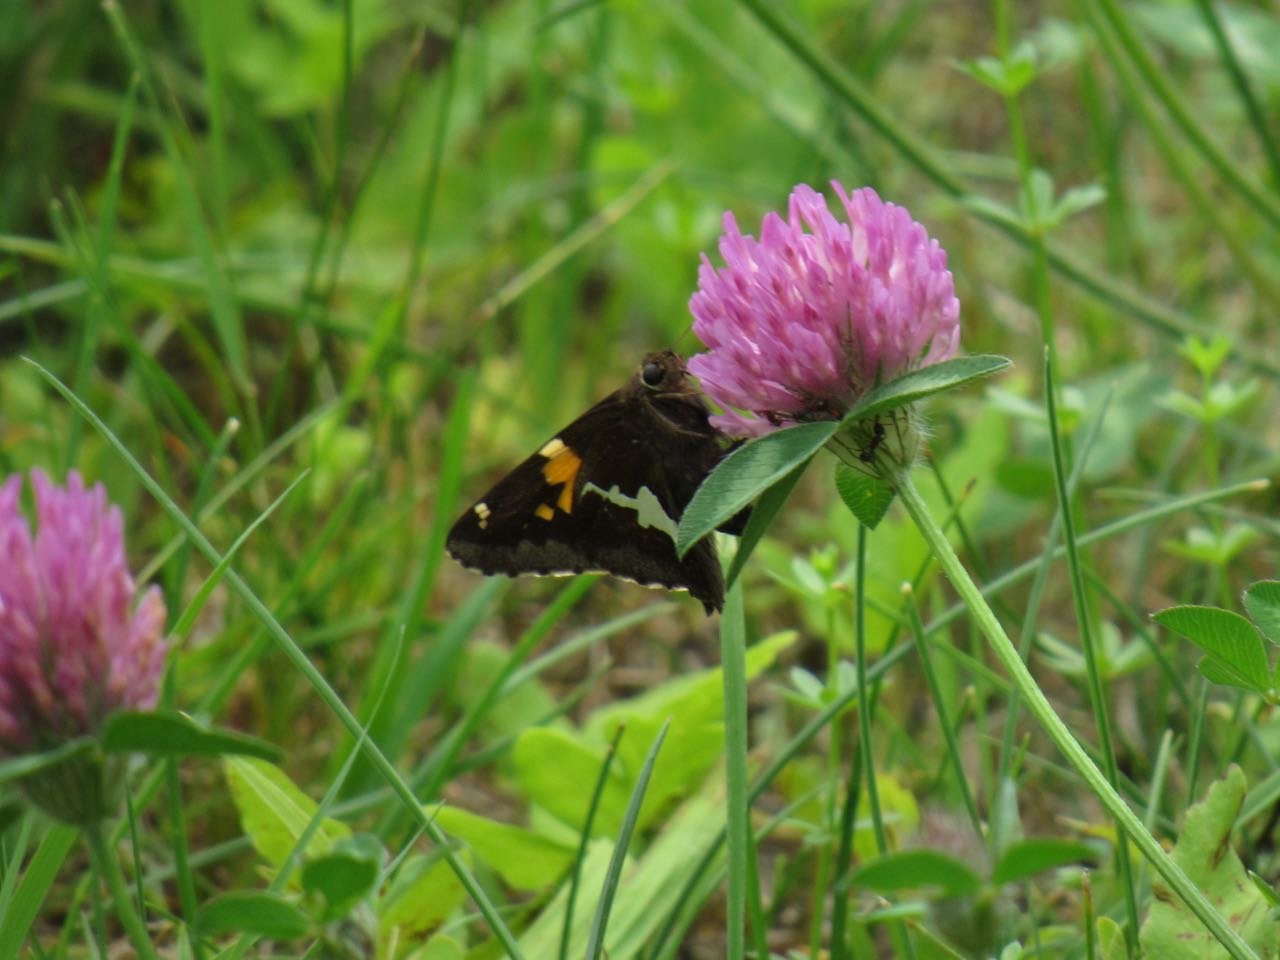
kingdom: Animalia
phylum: Arthropoda
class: Insecta
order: Lepidoptera
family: Hesperiidae
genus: Epargyreus
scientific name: Epargyreus clarus
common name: Silver-spotted Skipper
